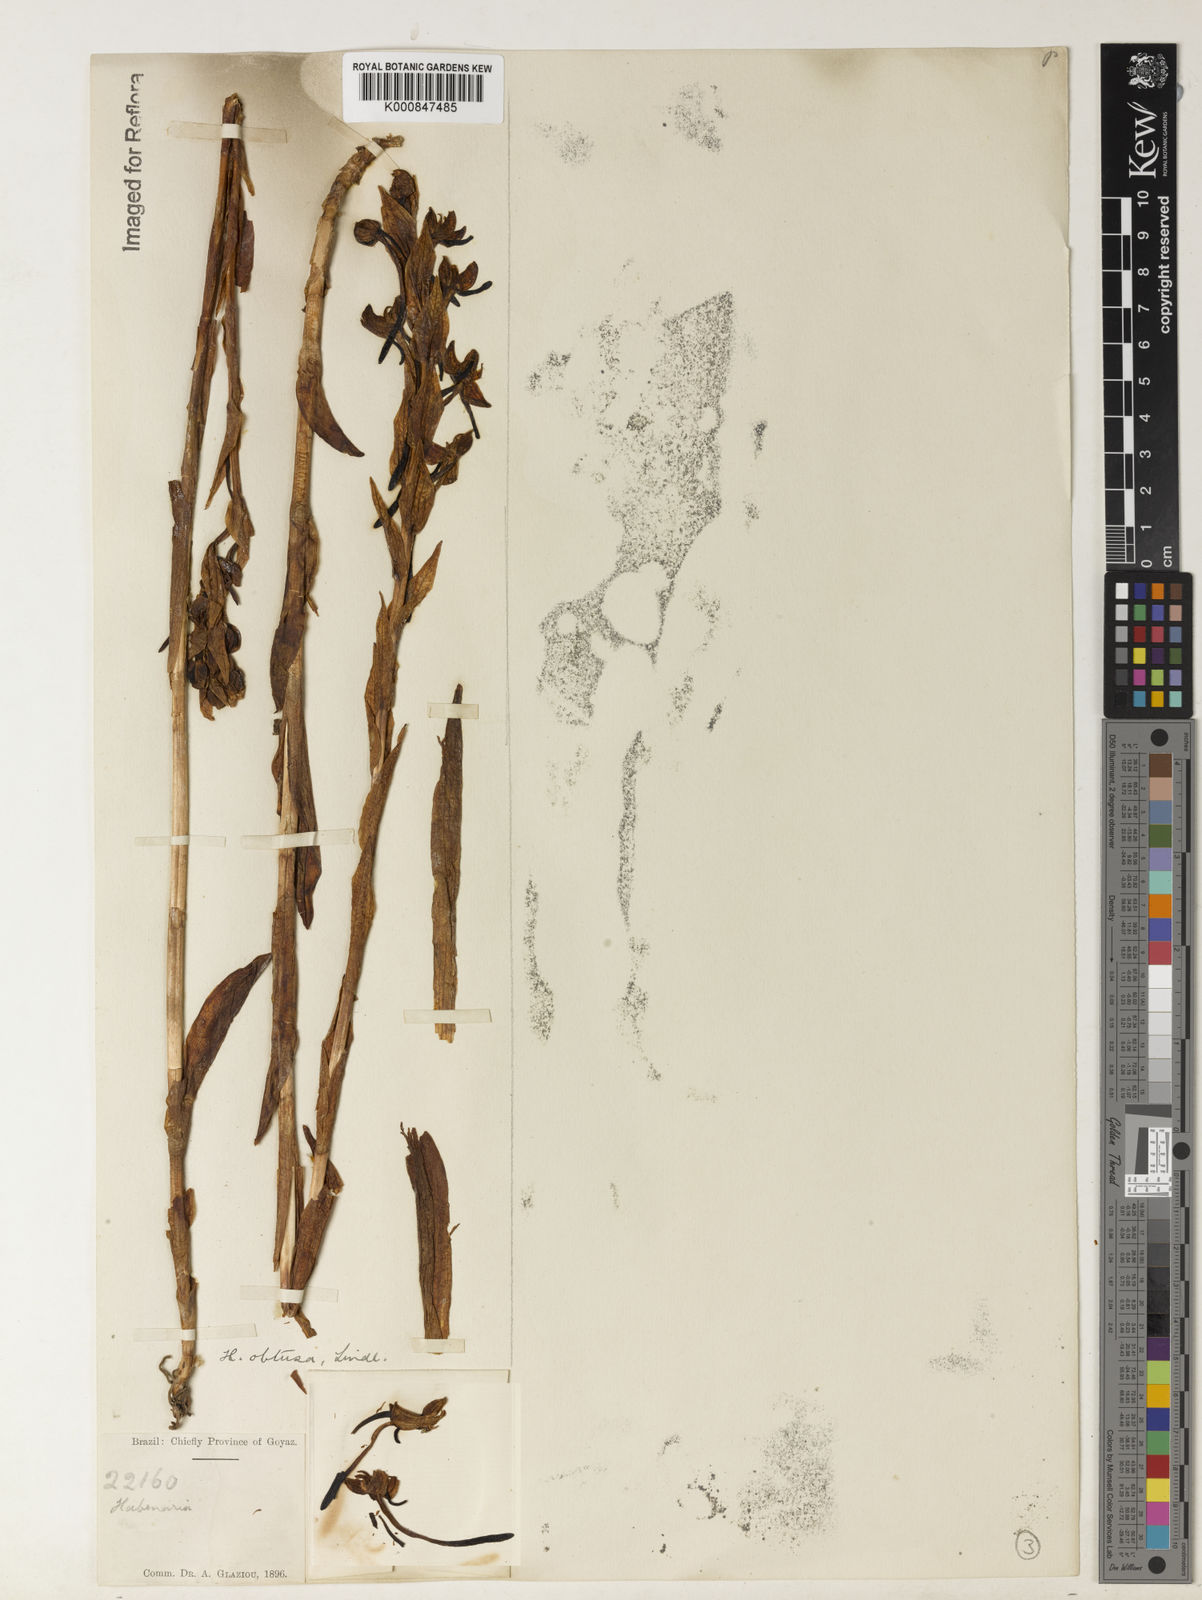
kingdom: Plantae
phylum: Tracheophyta
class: Liliopsida
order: Asparagales
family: Orchidaceae
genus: Habenaria
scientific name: Habenaria obtusa
